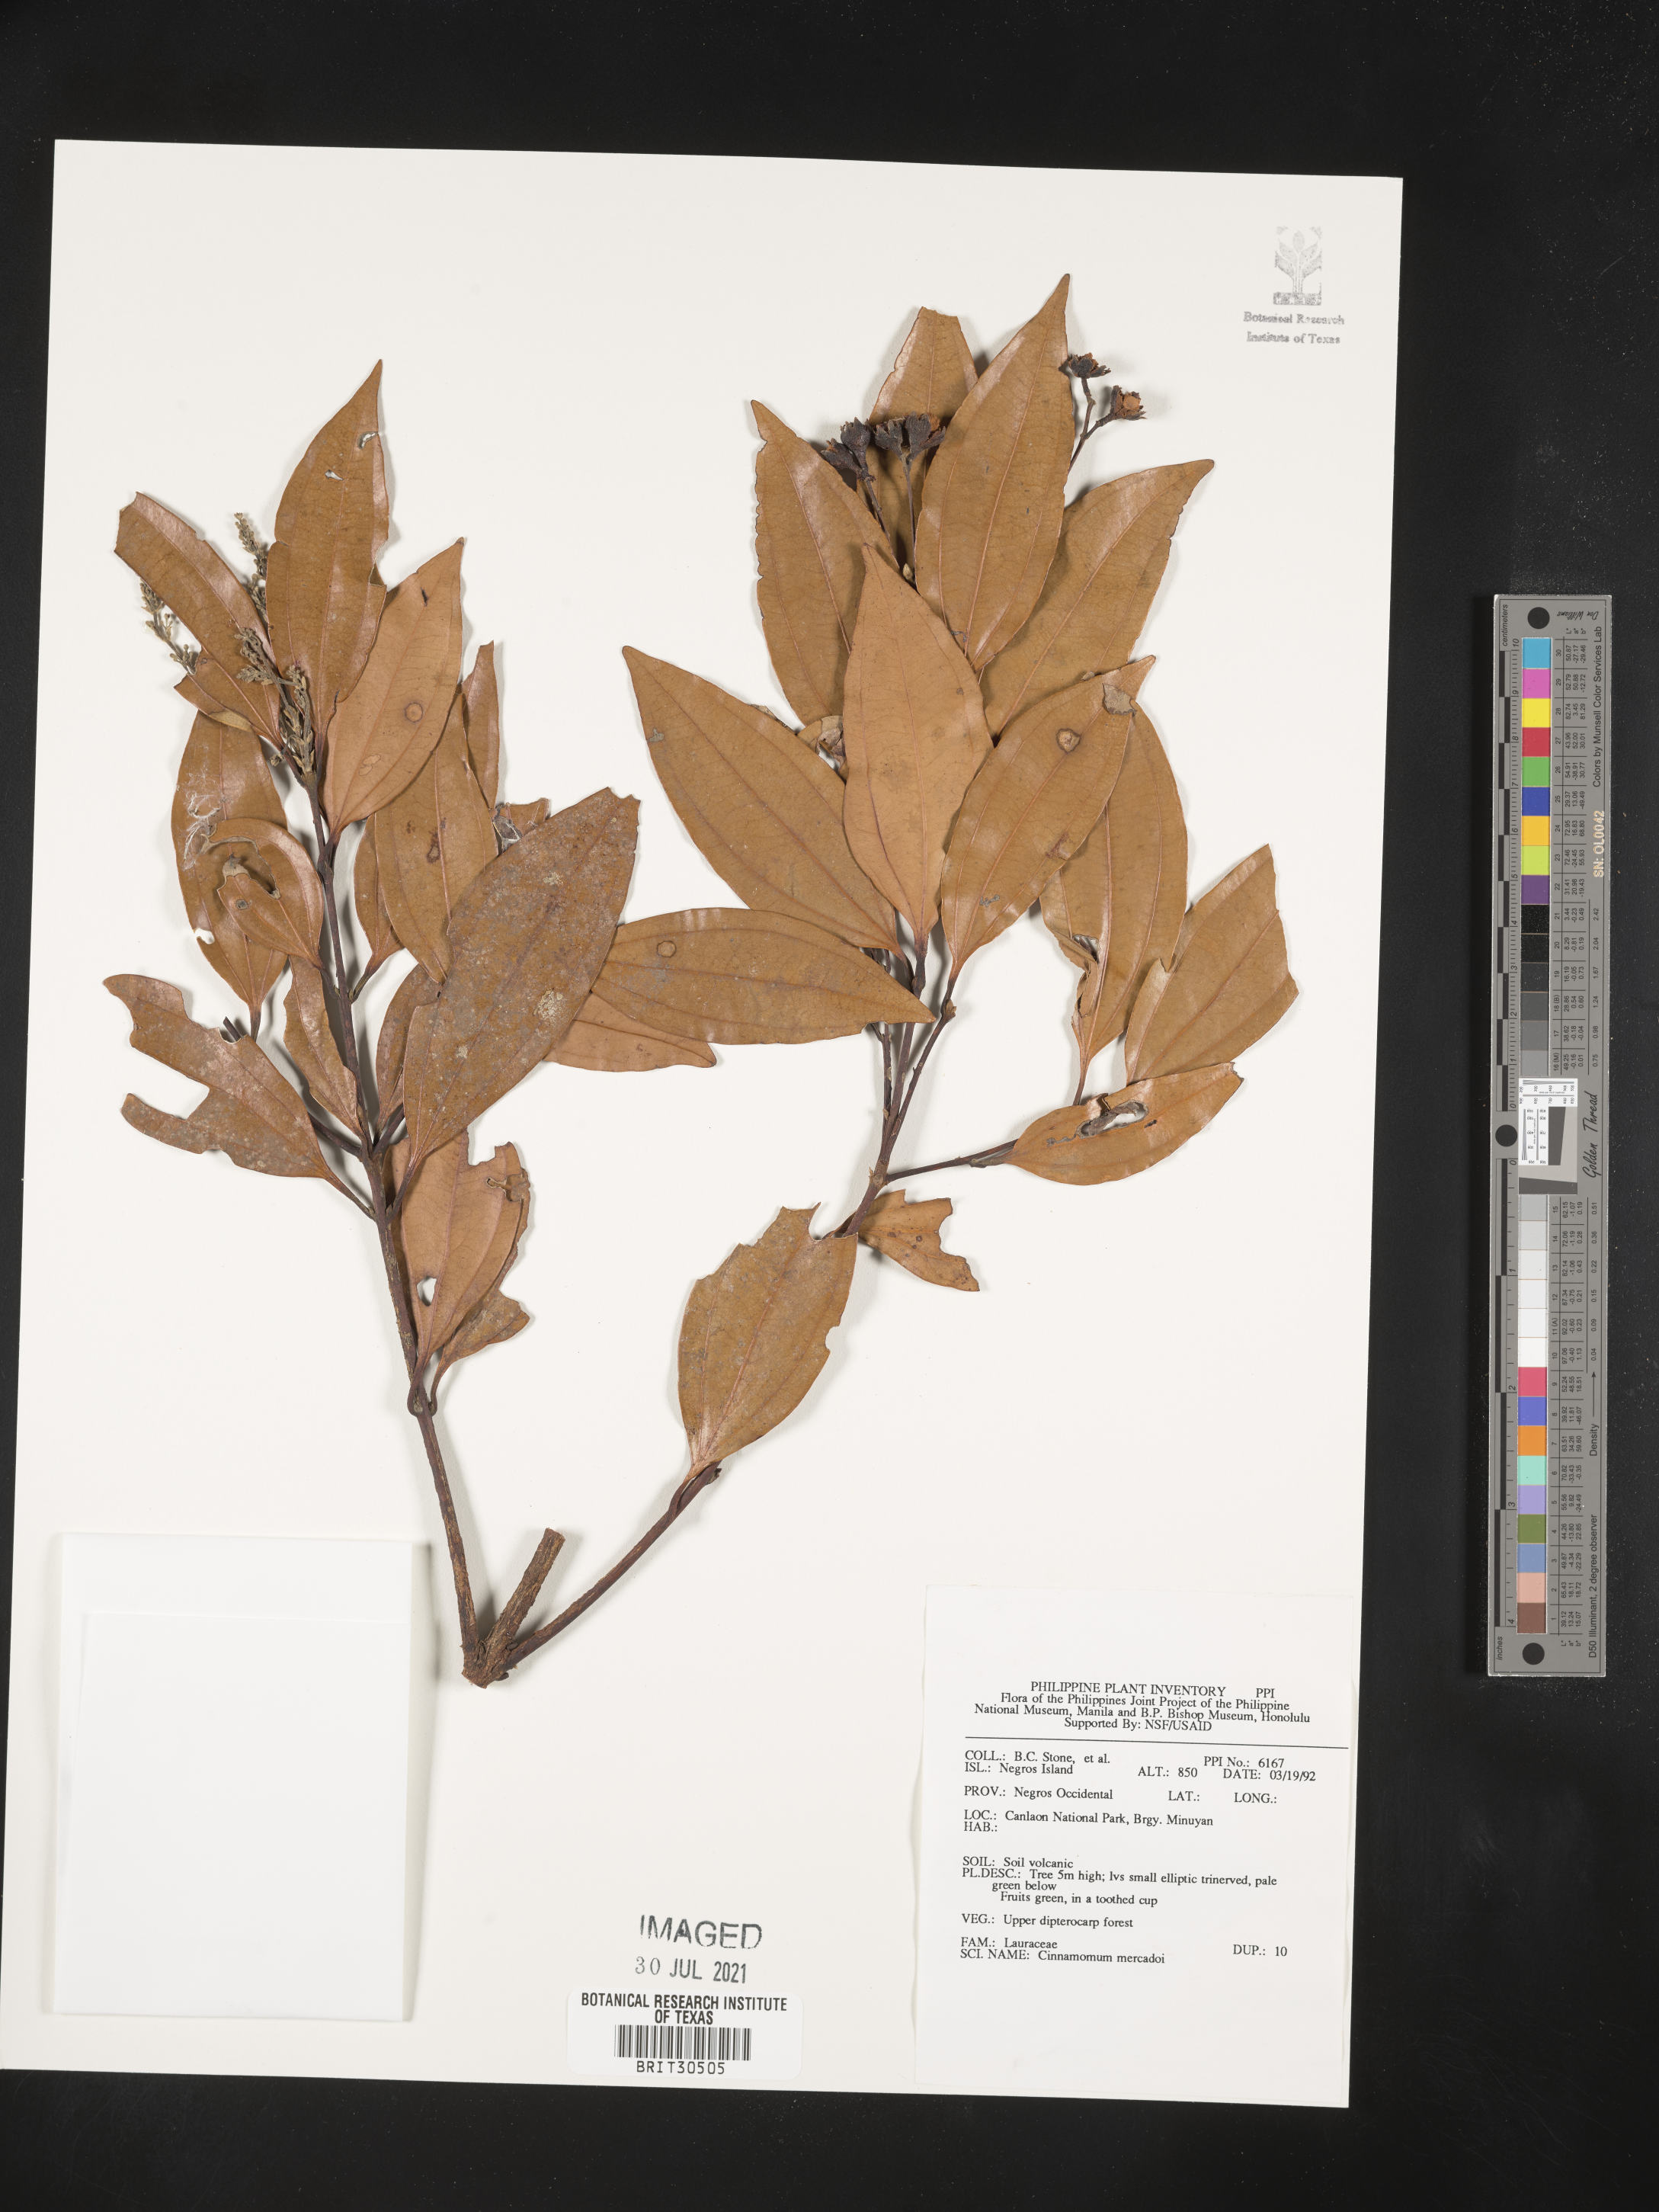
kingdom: Plantae
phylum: Tracheophyta
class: Magnoliopsida
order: Laurales
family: Lauraceae
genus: Cinnamomum
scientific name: Cinnamomum mercadoi
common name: Cinamomon
